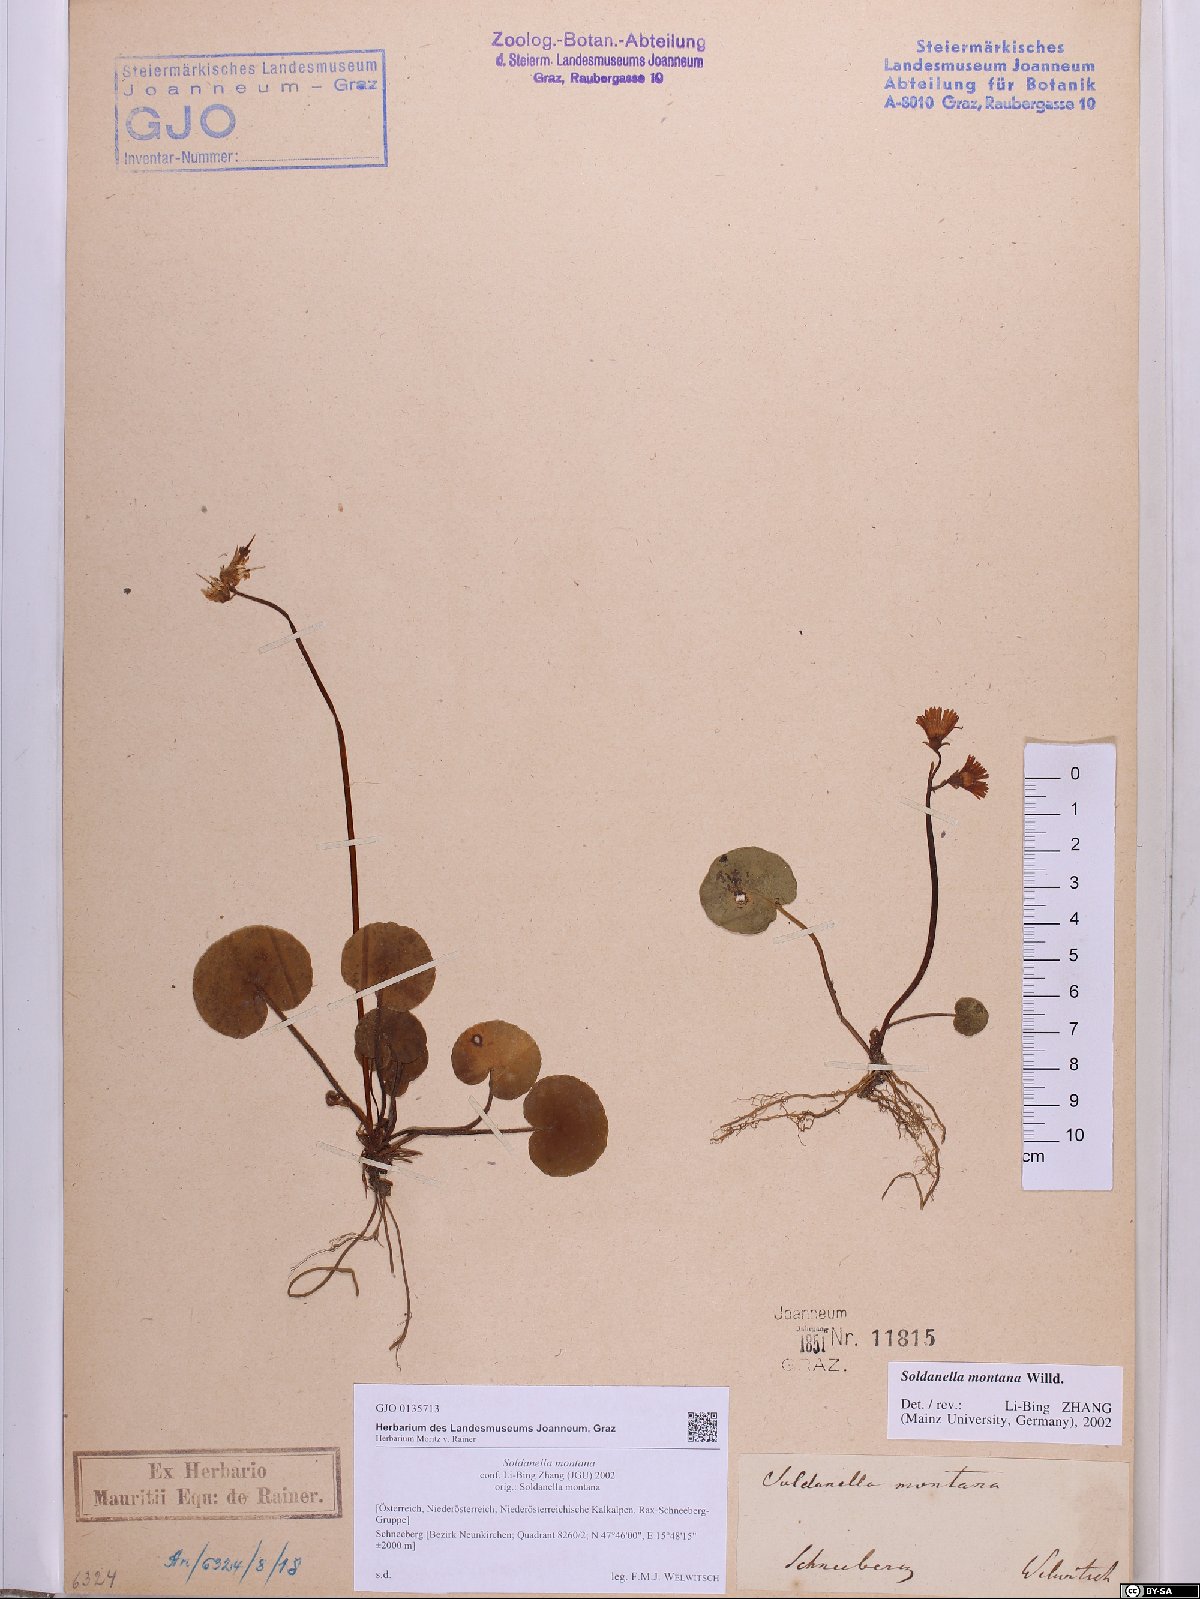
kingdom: Plantae
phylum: Tracheophyta
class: Magnoliopsida
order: Ericales
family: Primulaceae
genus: Soldanella
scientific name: Soldanella montana
